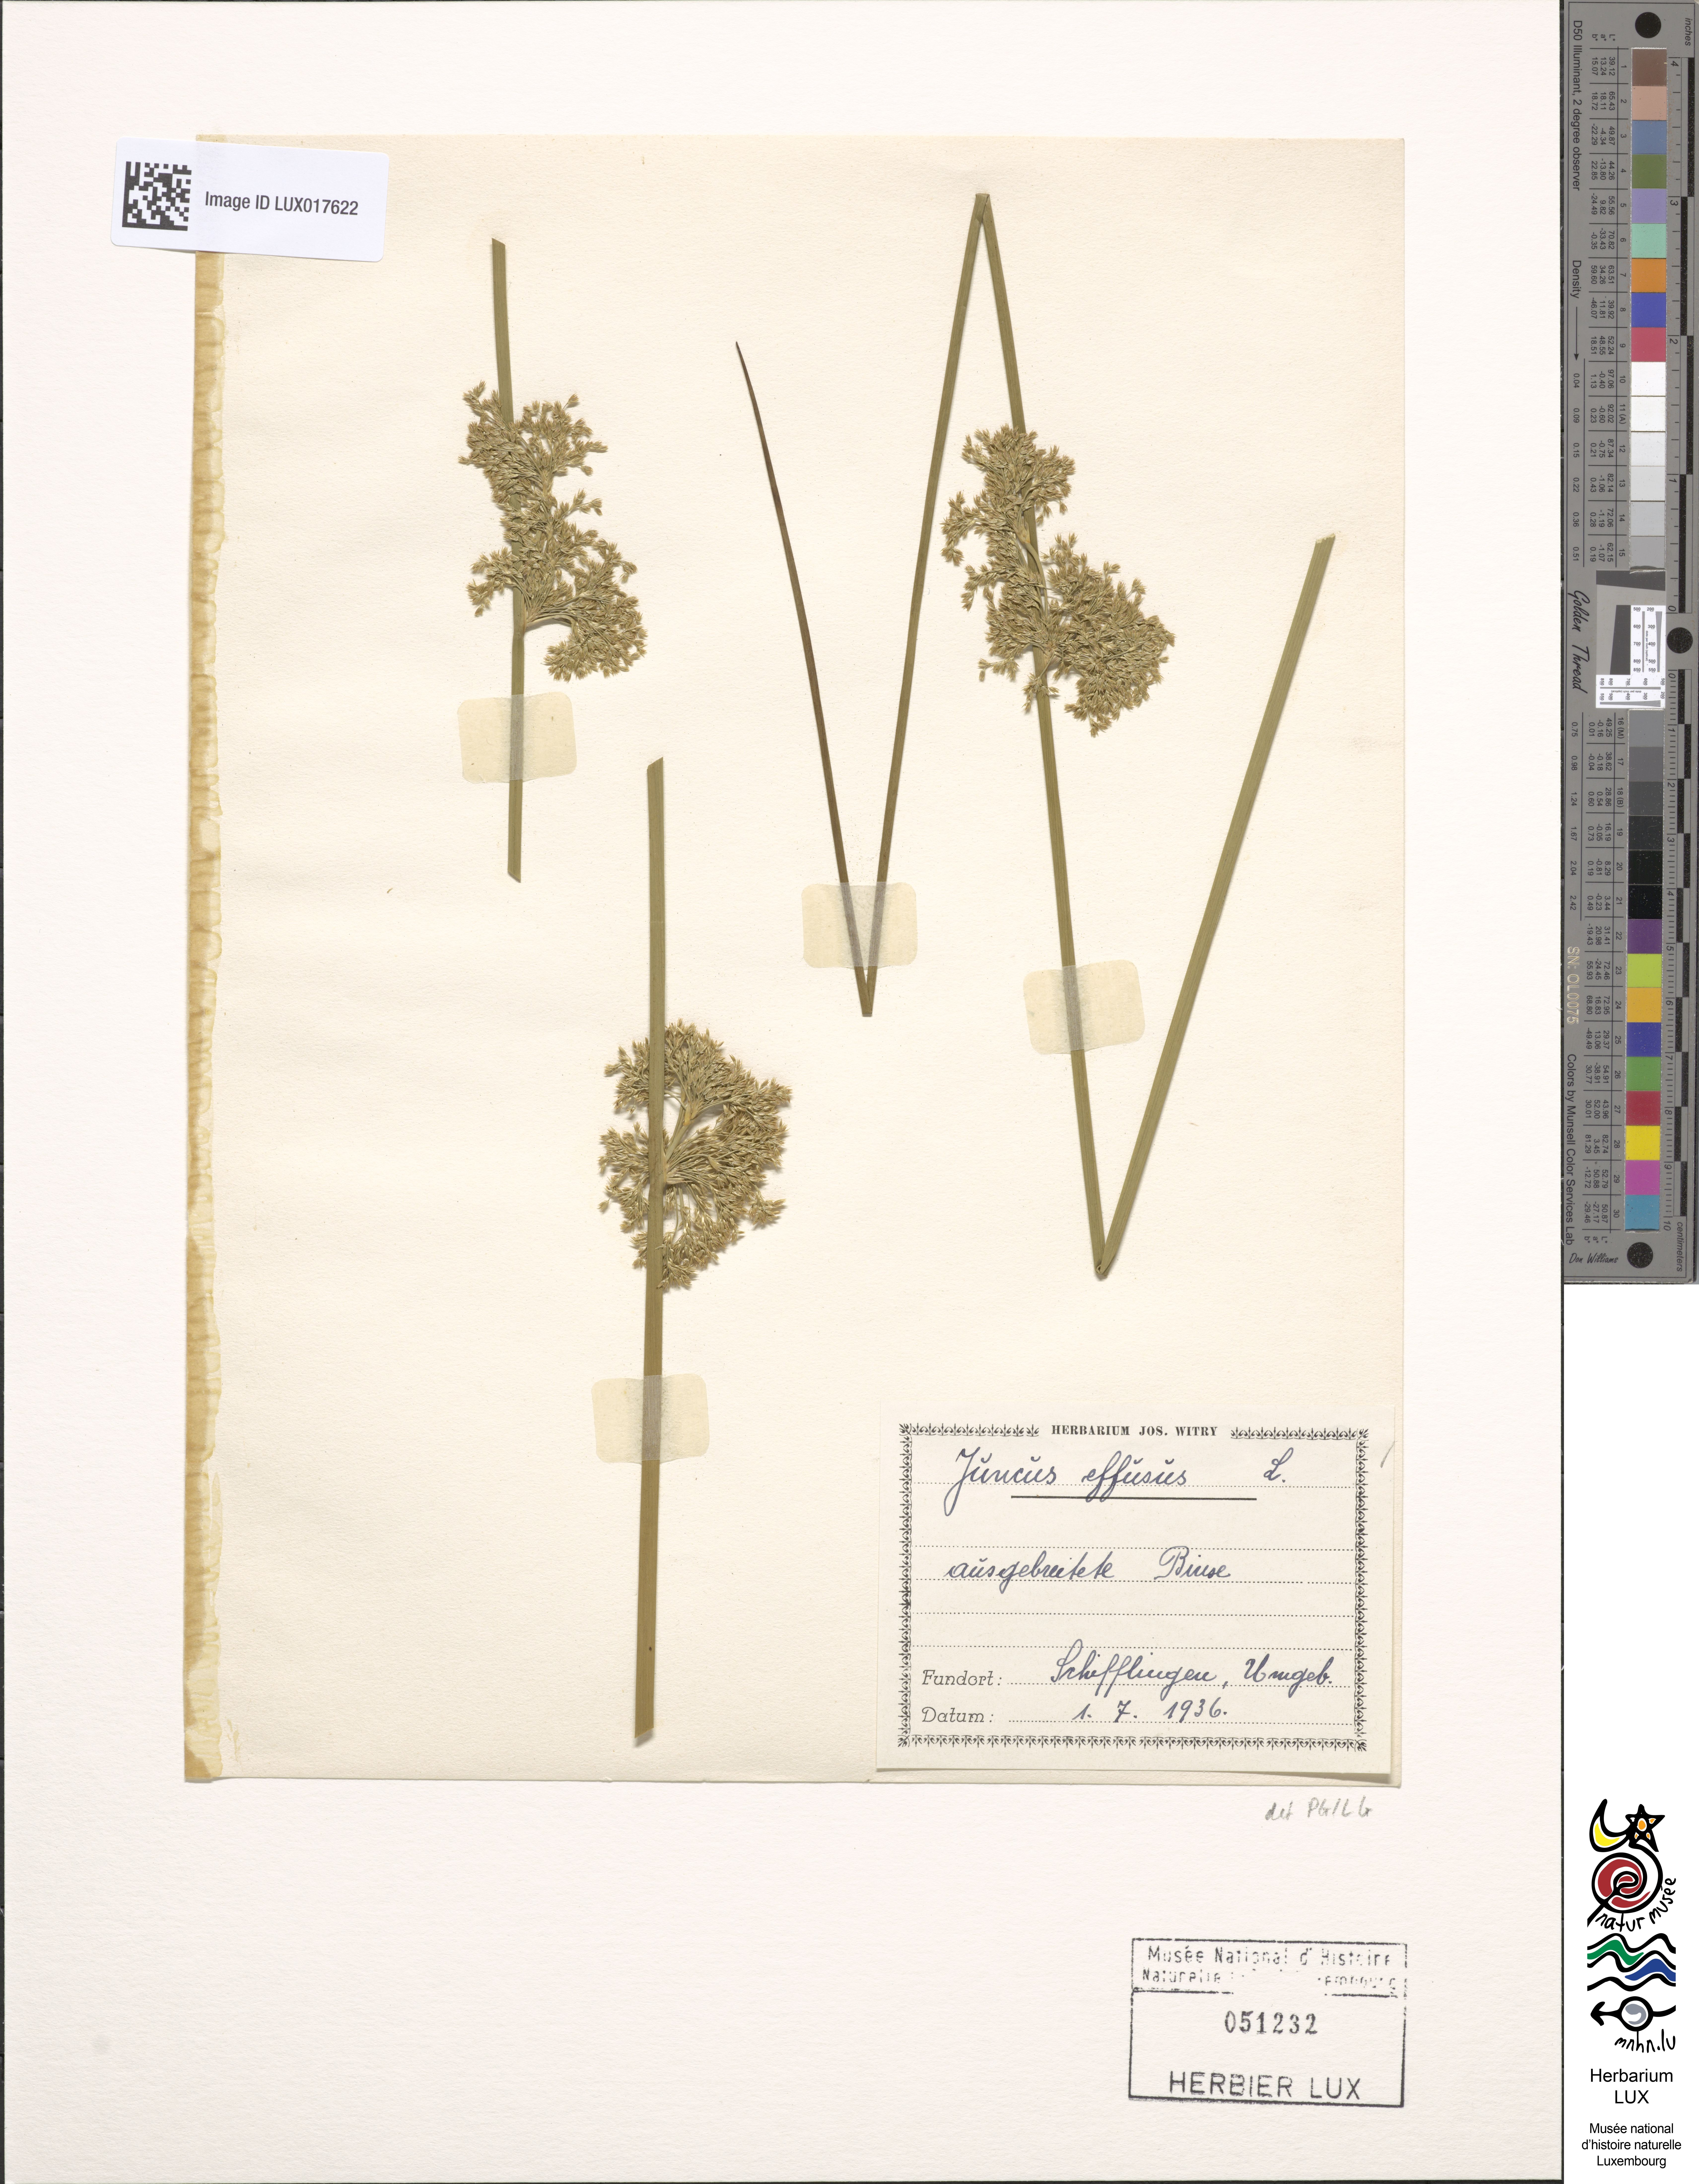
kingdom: Plantae
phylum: Tracheophyta
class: Liliopsida
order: Poales
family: Juncaceae
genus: Juncus
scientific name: Juncus effusus
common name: Soft rush
